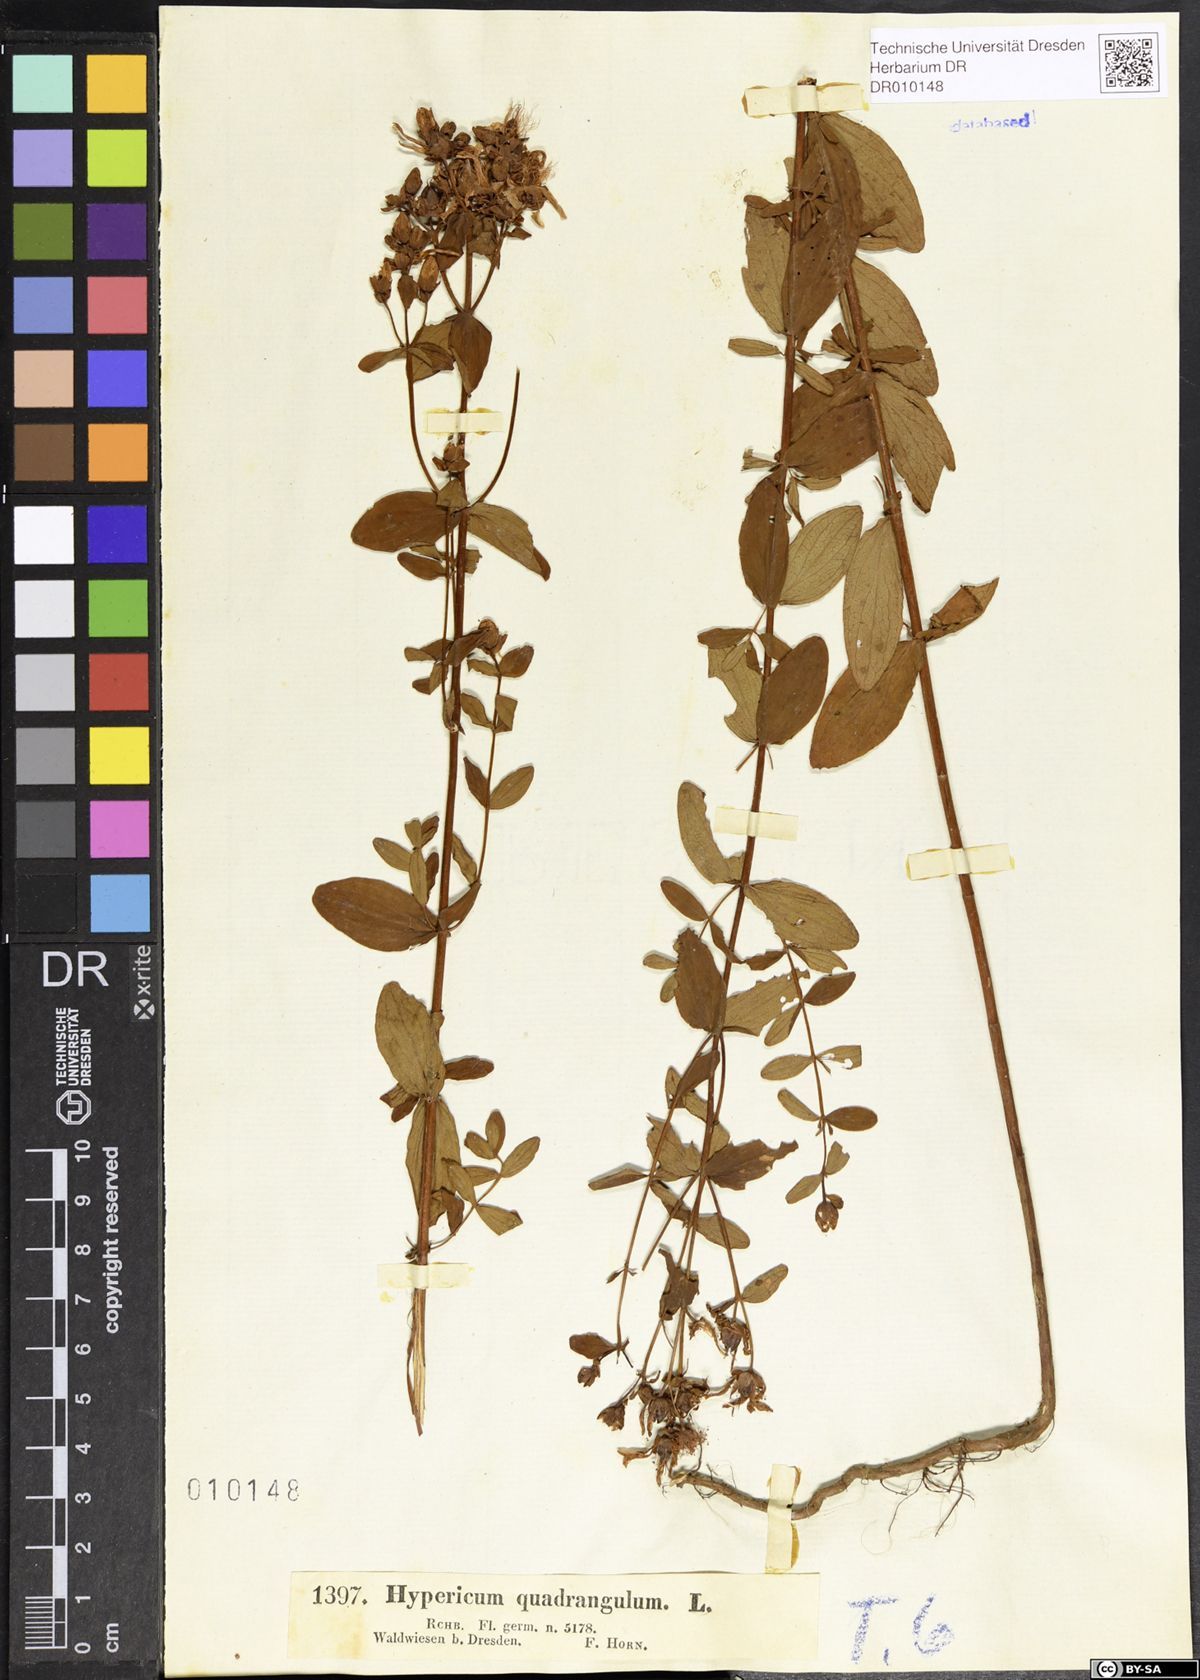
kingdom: Plantae
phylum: Tracheophyta
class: Magnoliopsida
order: Malpighiales
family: Hypericaceae
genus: Hypericum
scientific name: Hypericum maculatum
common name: Imperforate st. john's-wort
